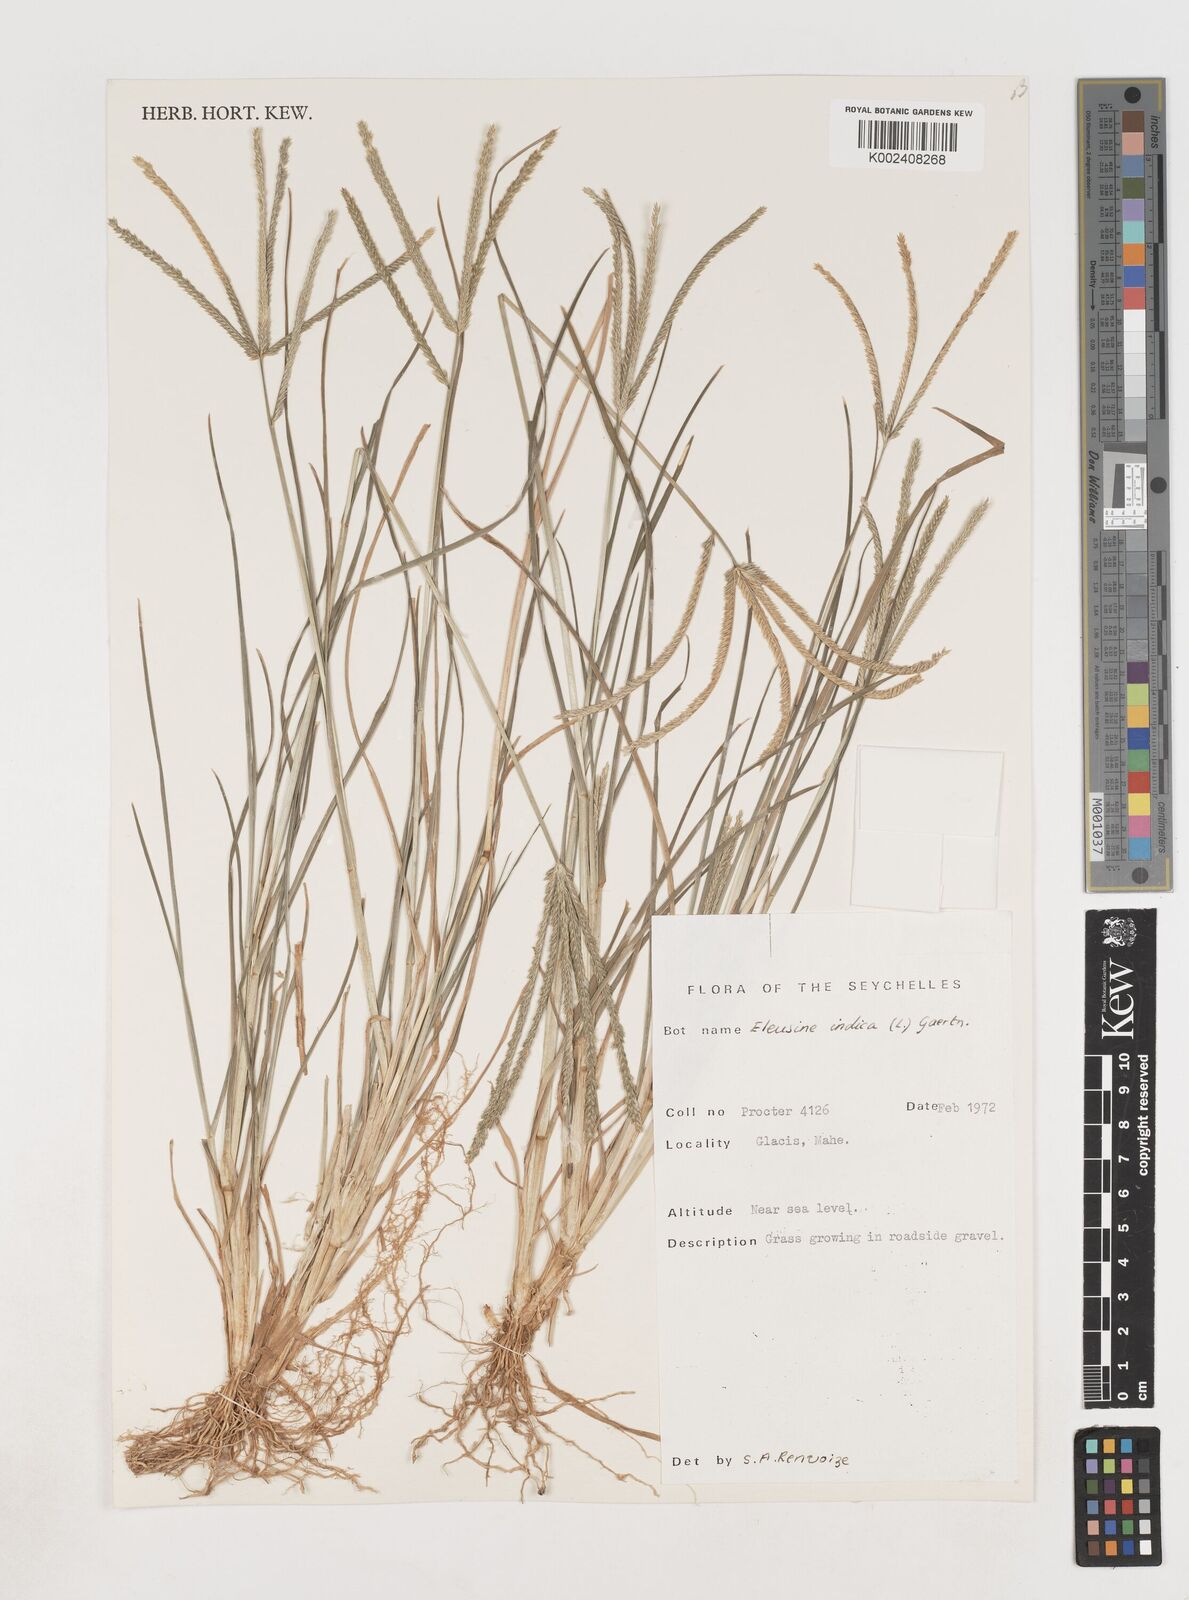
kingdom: Plantae
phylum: Tracheophyta
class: Liliopsida
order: Poales
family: Poaceae
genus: Eleusine
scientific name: Eleusine
